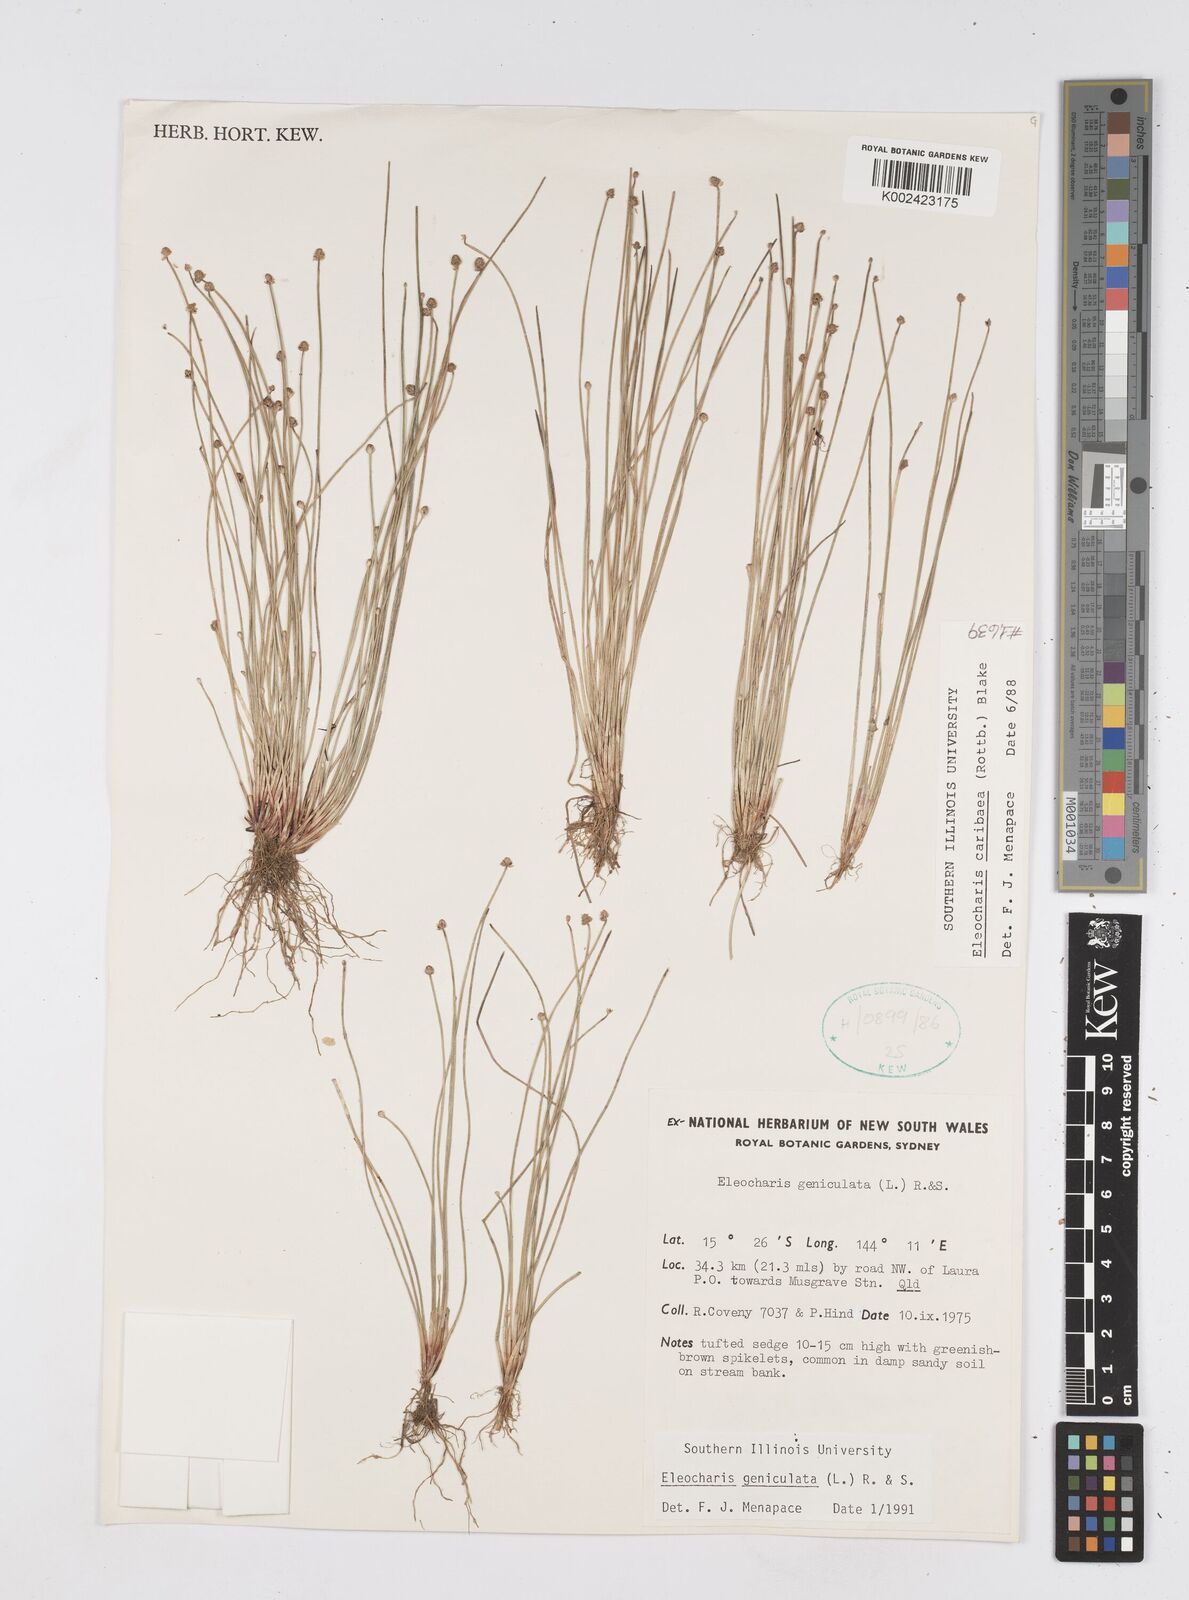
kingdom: Plantae
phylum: Tracheophyta
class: Liliopsida
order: Poales
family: Cyperaceae
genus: Eleocharis
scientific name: Eleocharis geniculata
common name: Canada spikesedge
